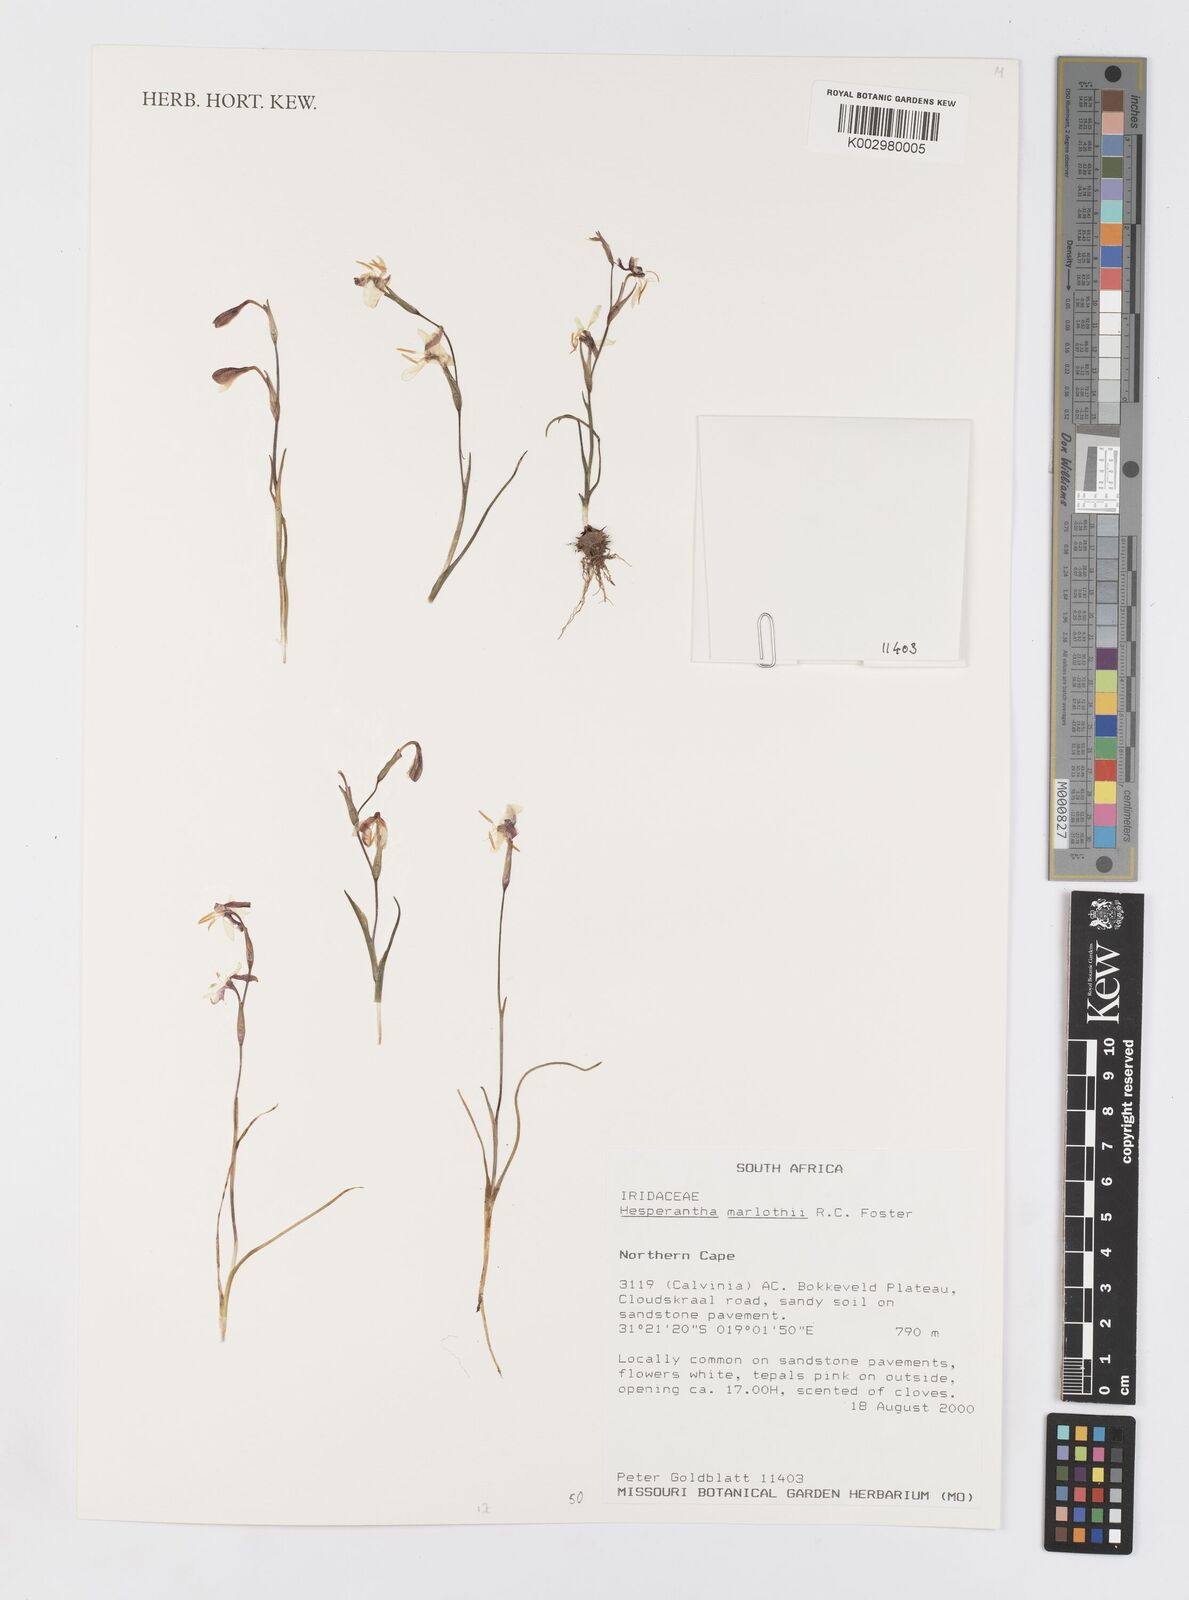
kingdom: Plantae
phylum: Tracheophyta
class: Liliopsida
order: Asparagales
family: Iridaceae
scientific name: Iridaceae
